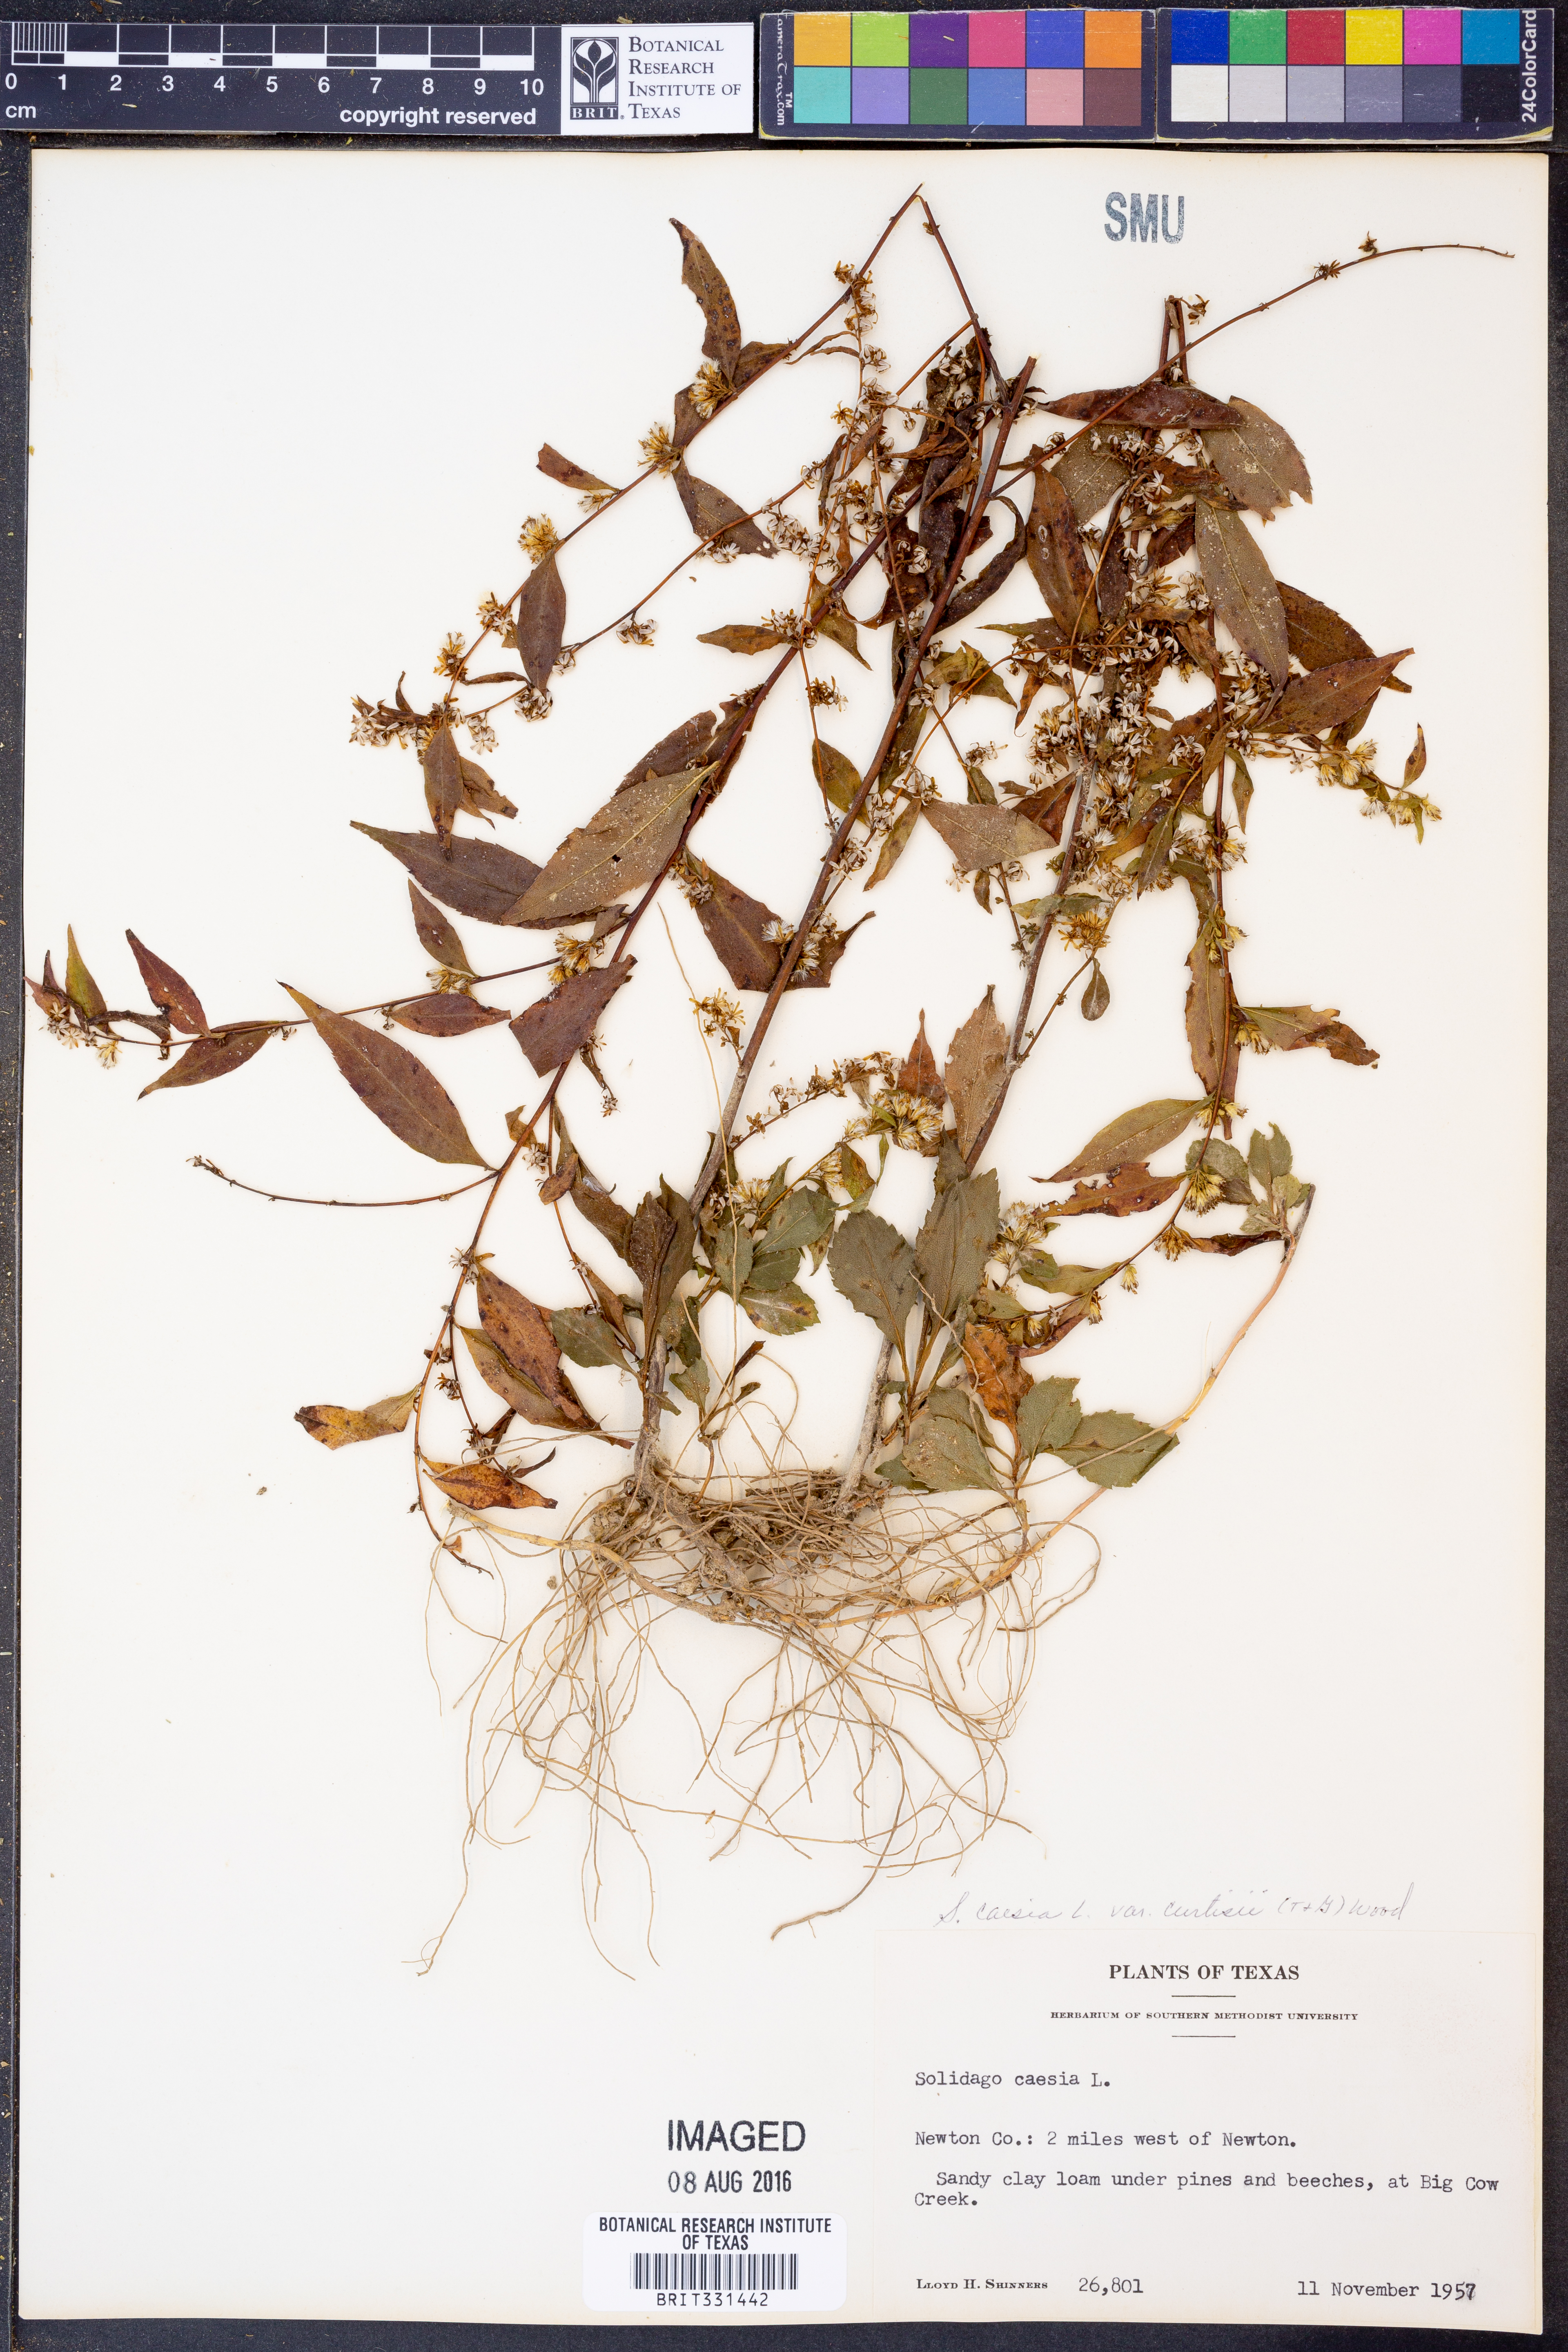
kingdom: Plantae
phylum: Tracheophyta
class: Magnoliopsida
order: Asterales
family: Asteraceae
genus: Solidago
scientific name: Solidago curtisii
